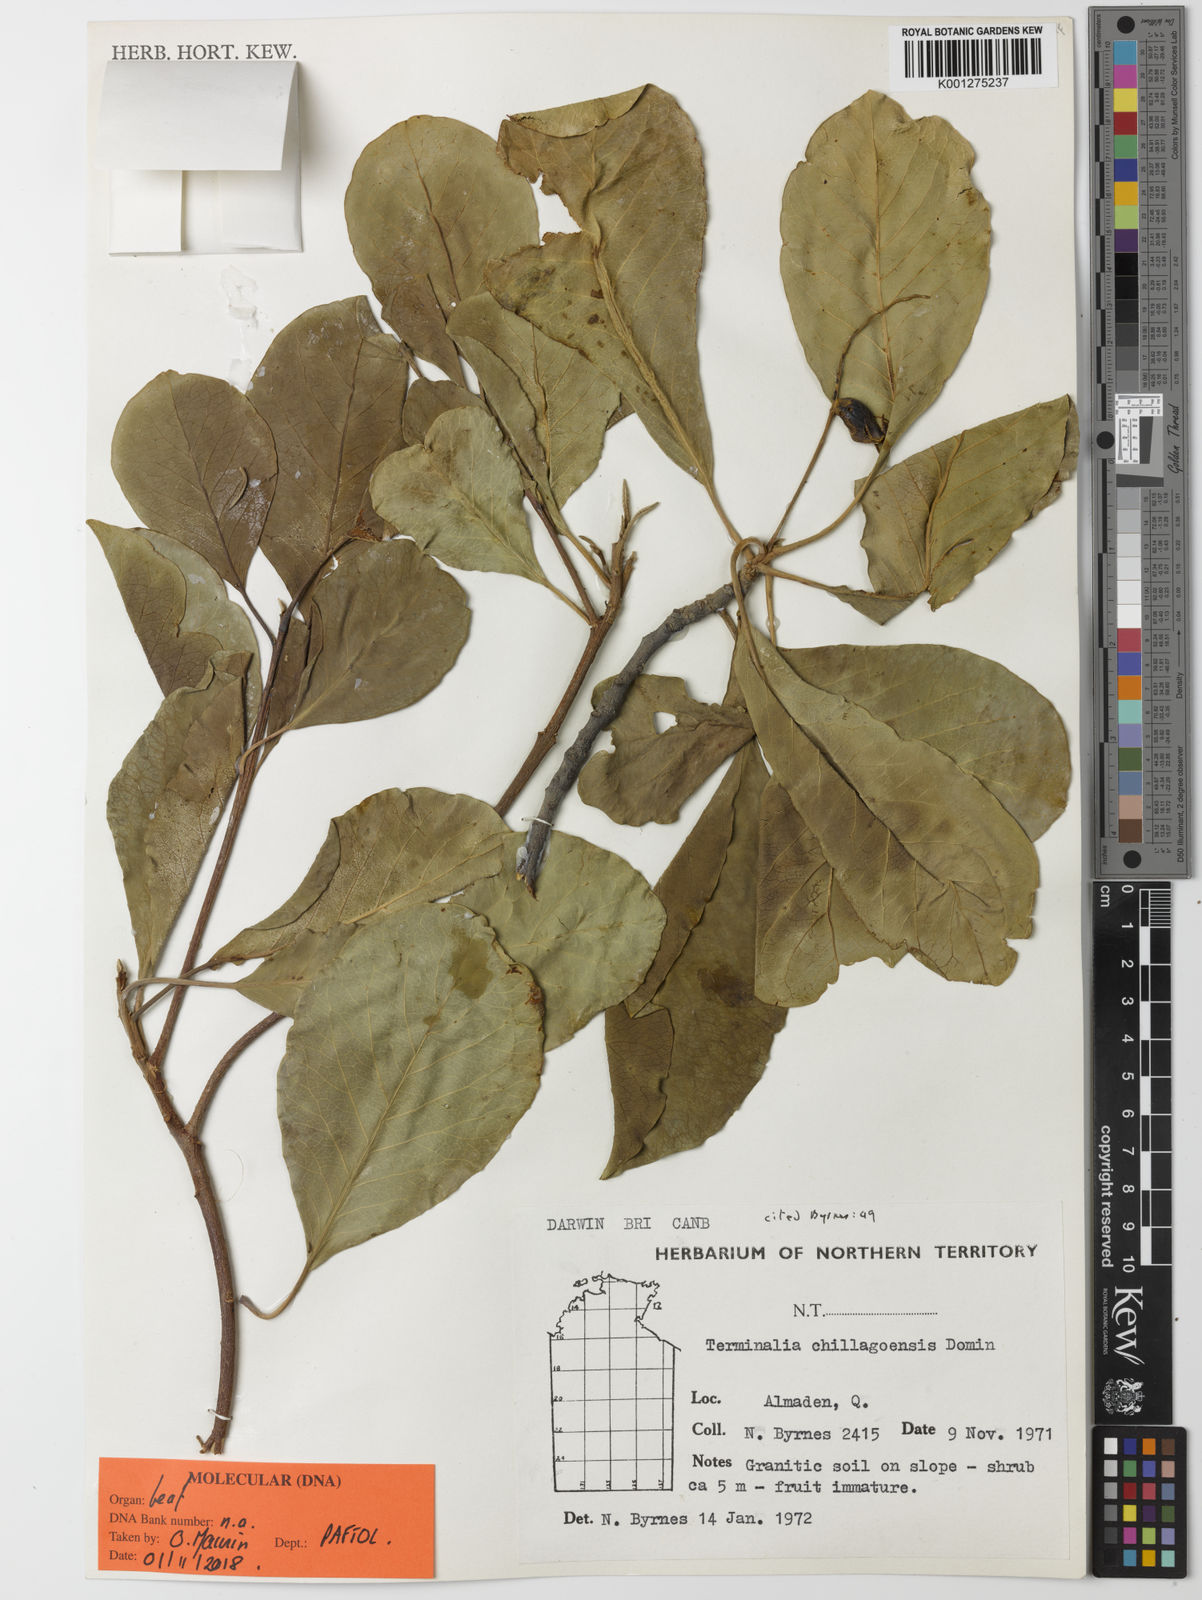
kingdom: Plantae
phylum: Tracheophyta
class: Magnoliopsida
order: Myrtales
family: Combretaceae
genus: Terminalia
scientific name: Terminalia aridicola
